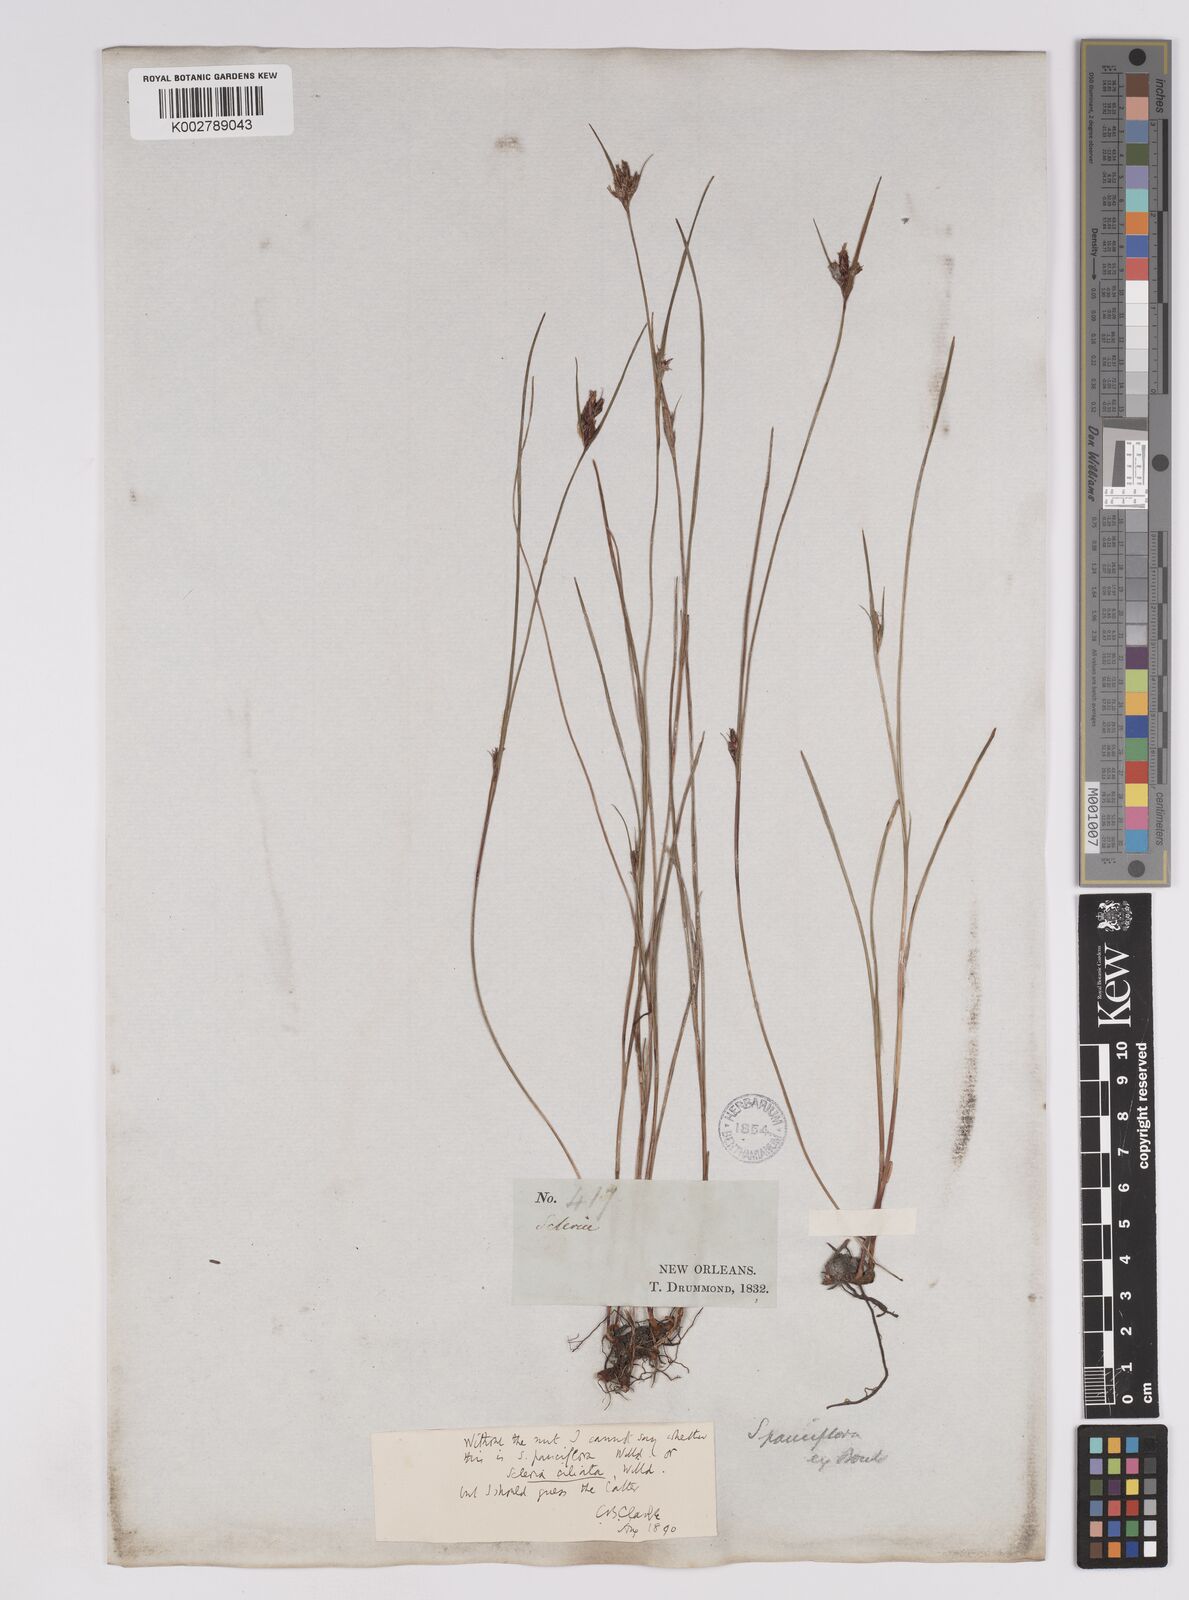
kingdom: Plantae
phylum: Tracheophyta
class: Liliopsida
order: Poales
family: Cyperaceae
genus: Scleria
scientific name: Scleria pauciflora
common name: Few-flowered nutrush
